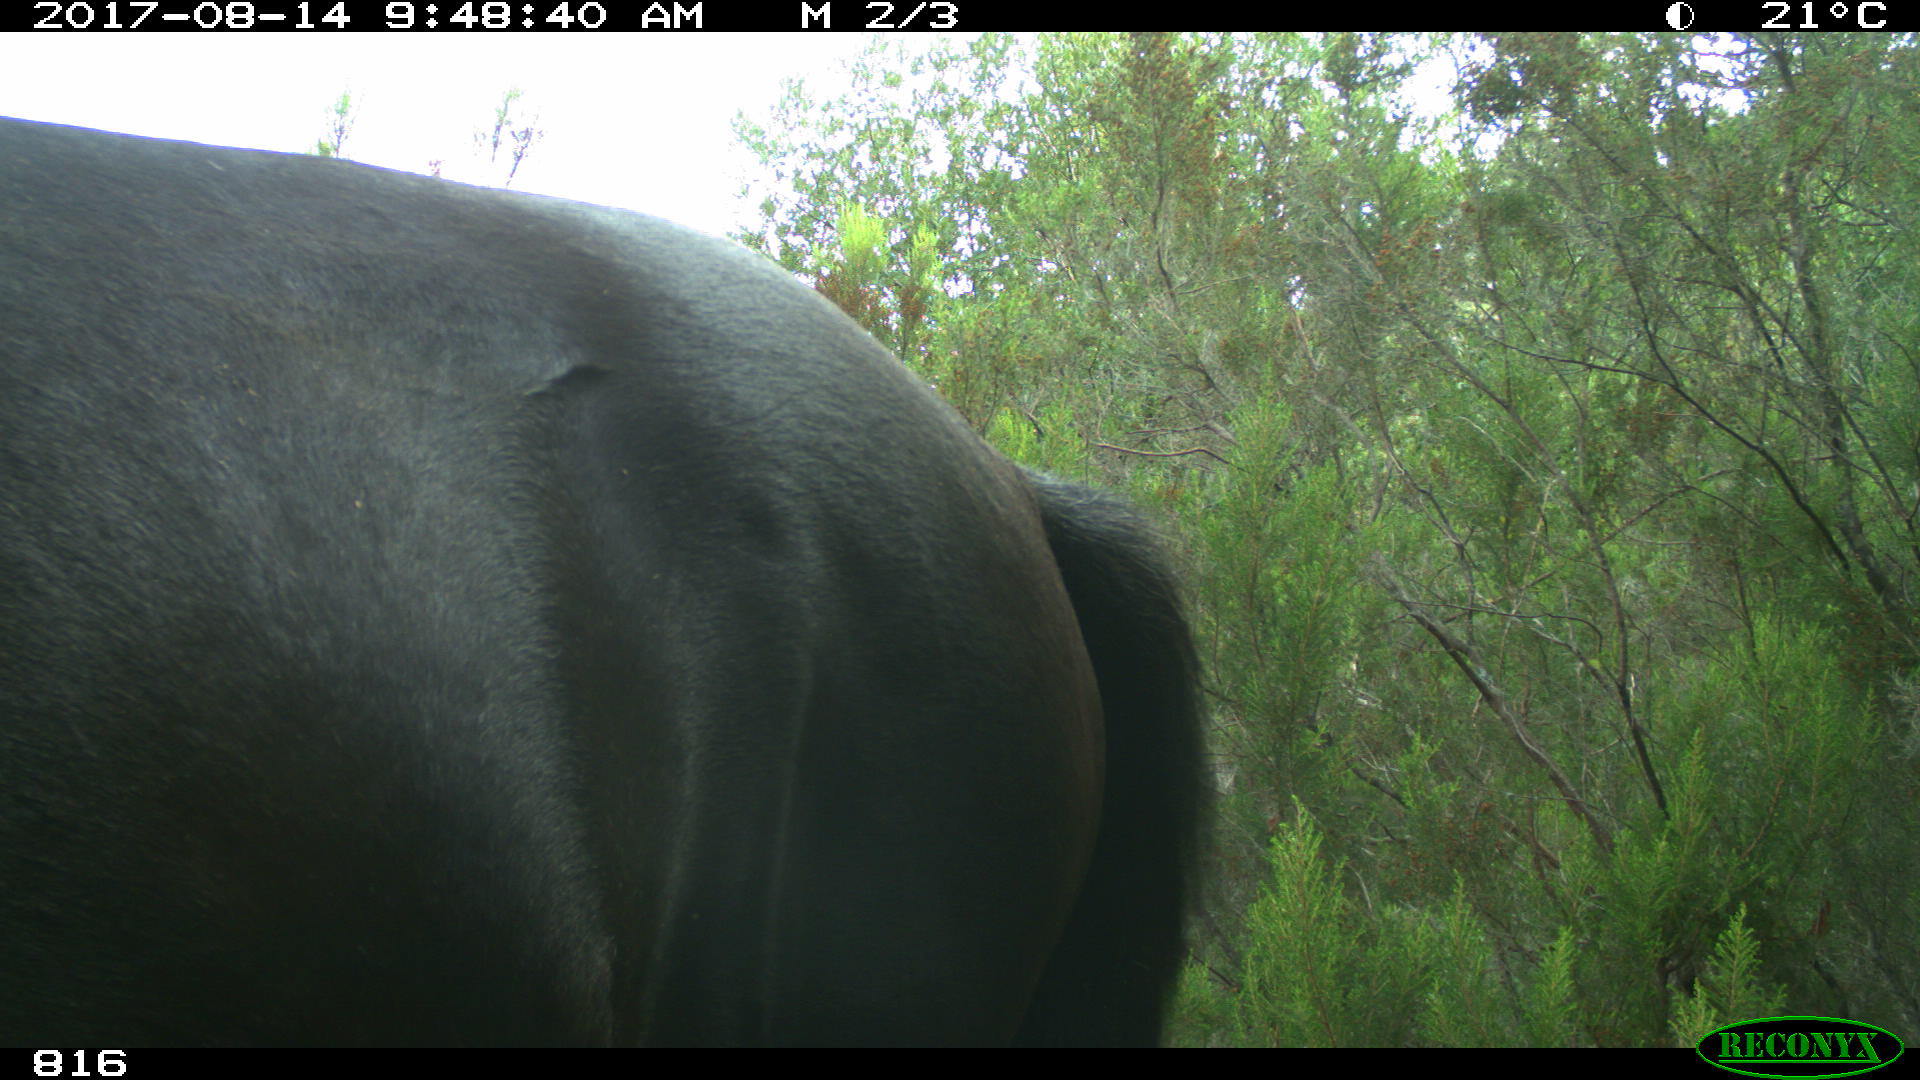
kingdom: Animalia
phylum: Chordata
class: Mammalia
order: Perissodactyla
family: Equidae
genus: Equus
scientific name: Equus caballus
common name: Horse
